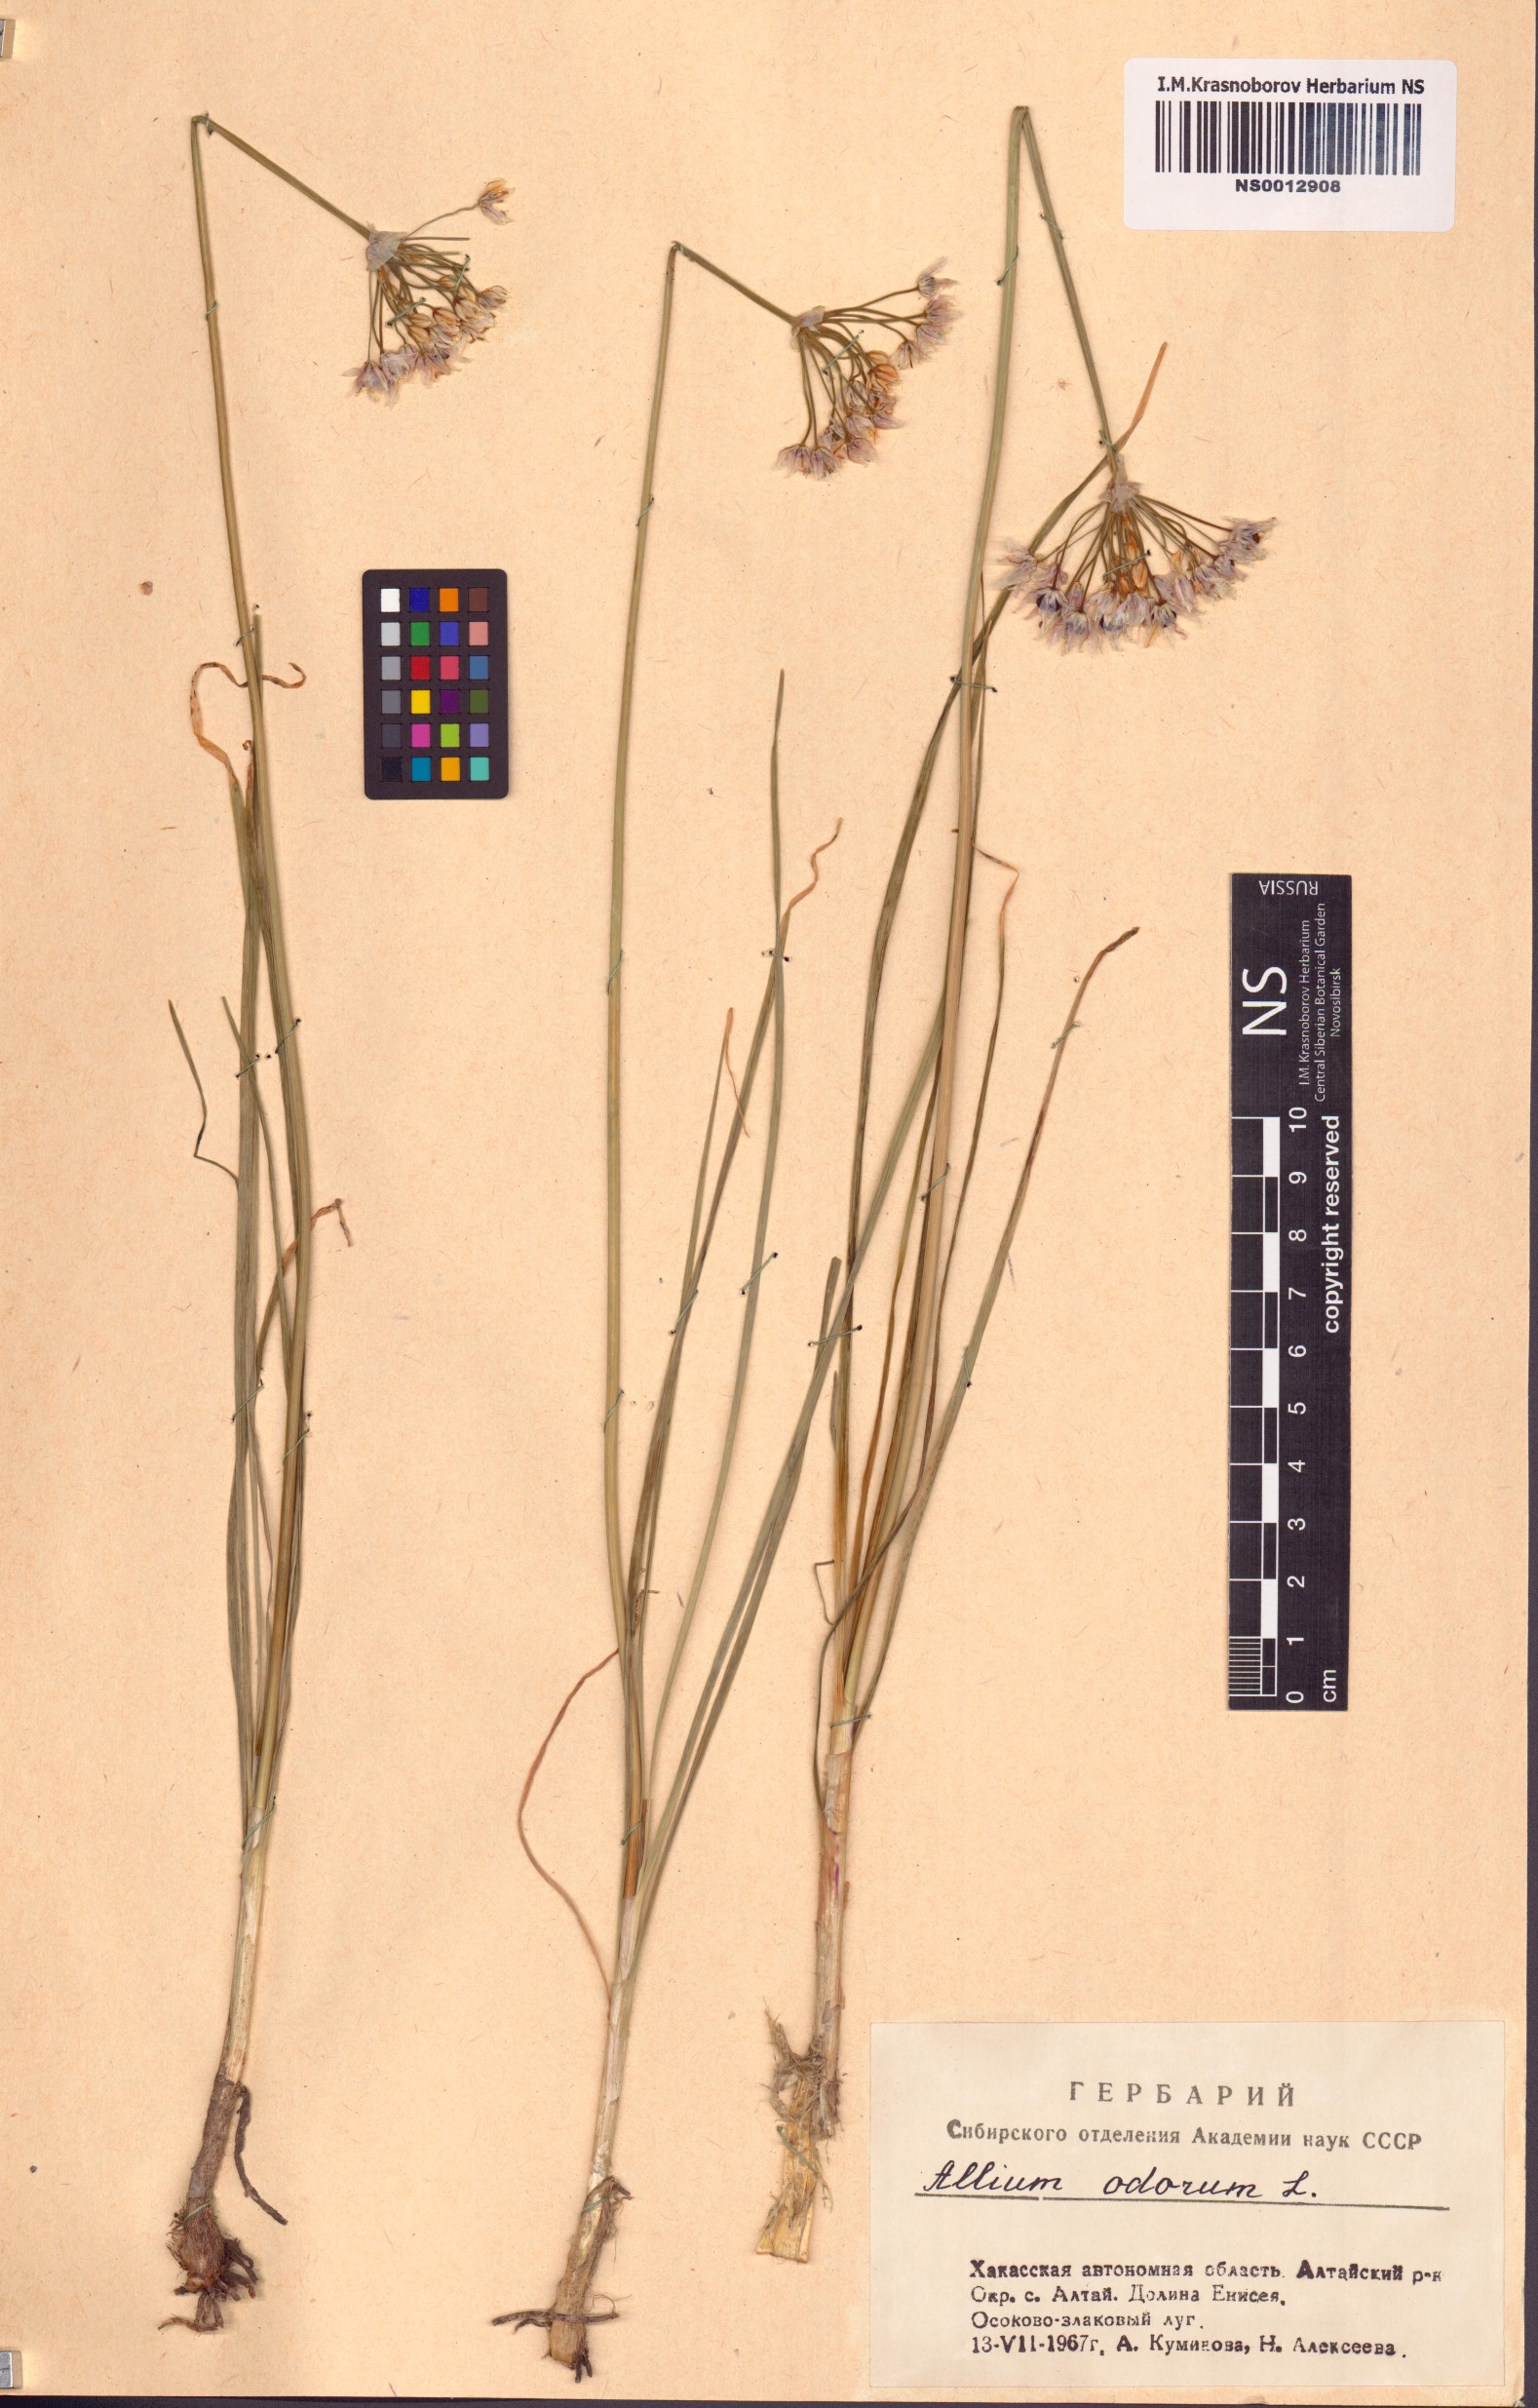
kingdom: Plantae
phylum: Tracheophyta
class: Liliopsida
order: Asparagales
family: Amaryllidaceae
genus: Allium
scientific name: Allium ramosum
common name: Fragrant garlic
